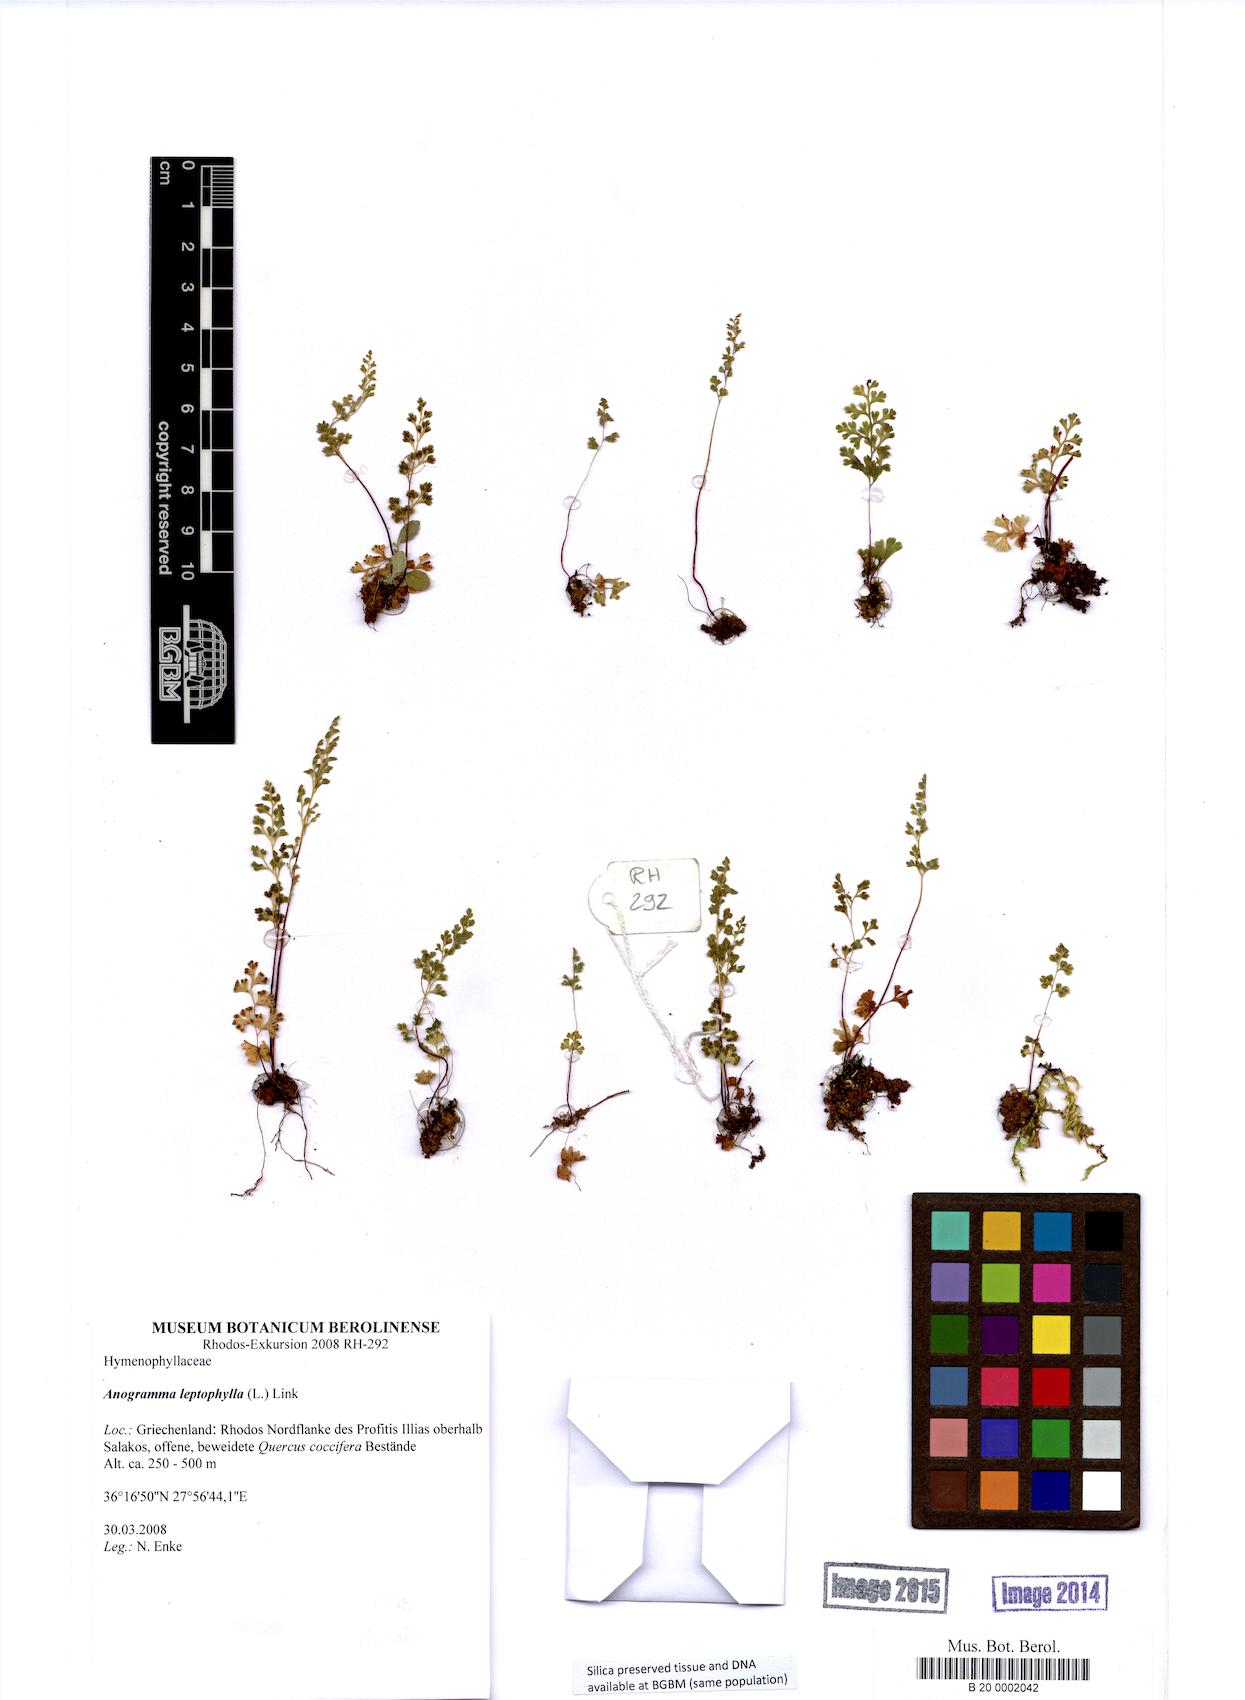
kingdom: Plantae
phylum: Tracheophyta
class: Polypodiopsida
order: Polypodiales
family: Pteridaceae
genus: Anogramma
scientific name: Anogramma leptophylla
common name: Jersey fern
